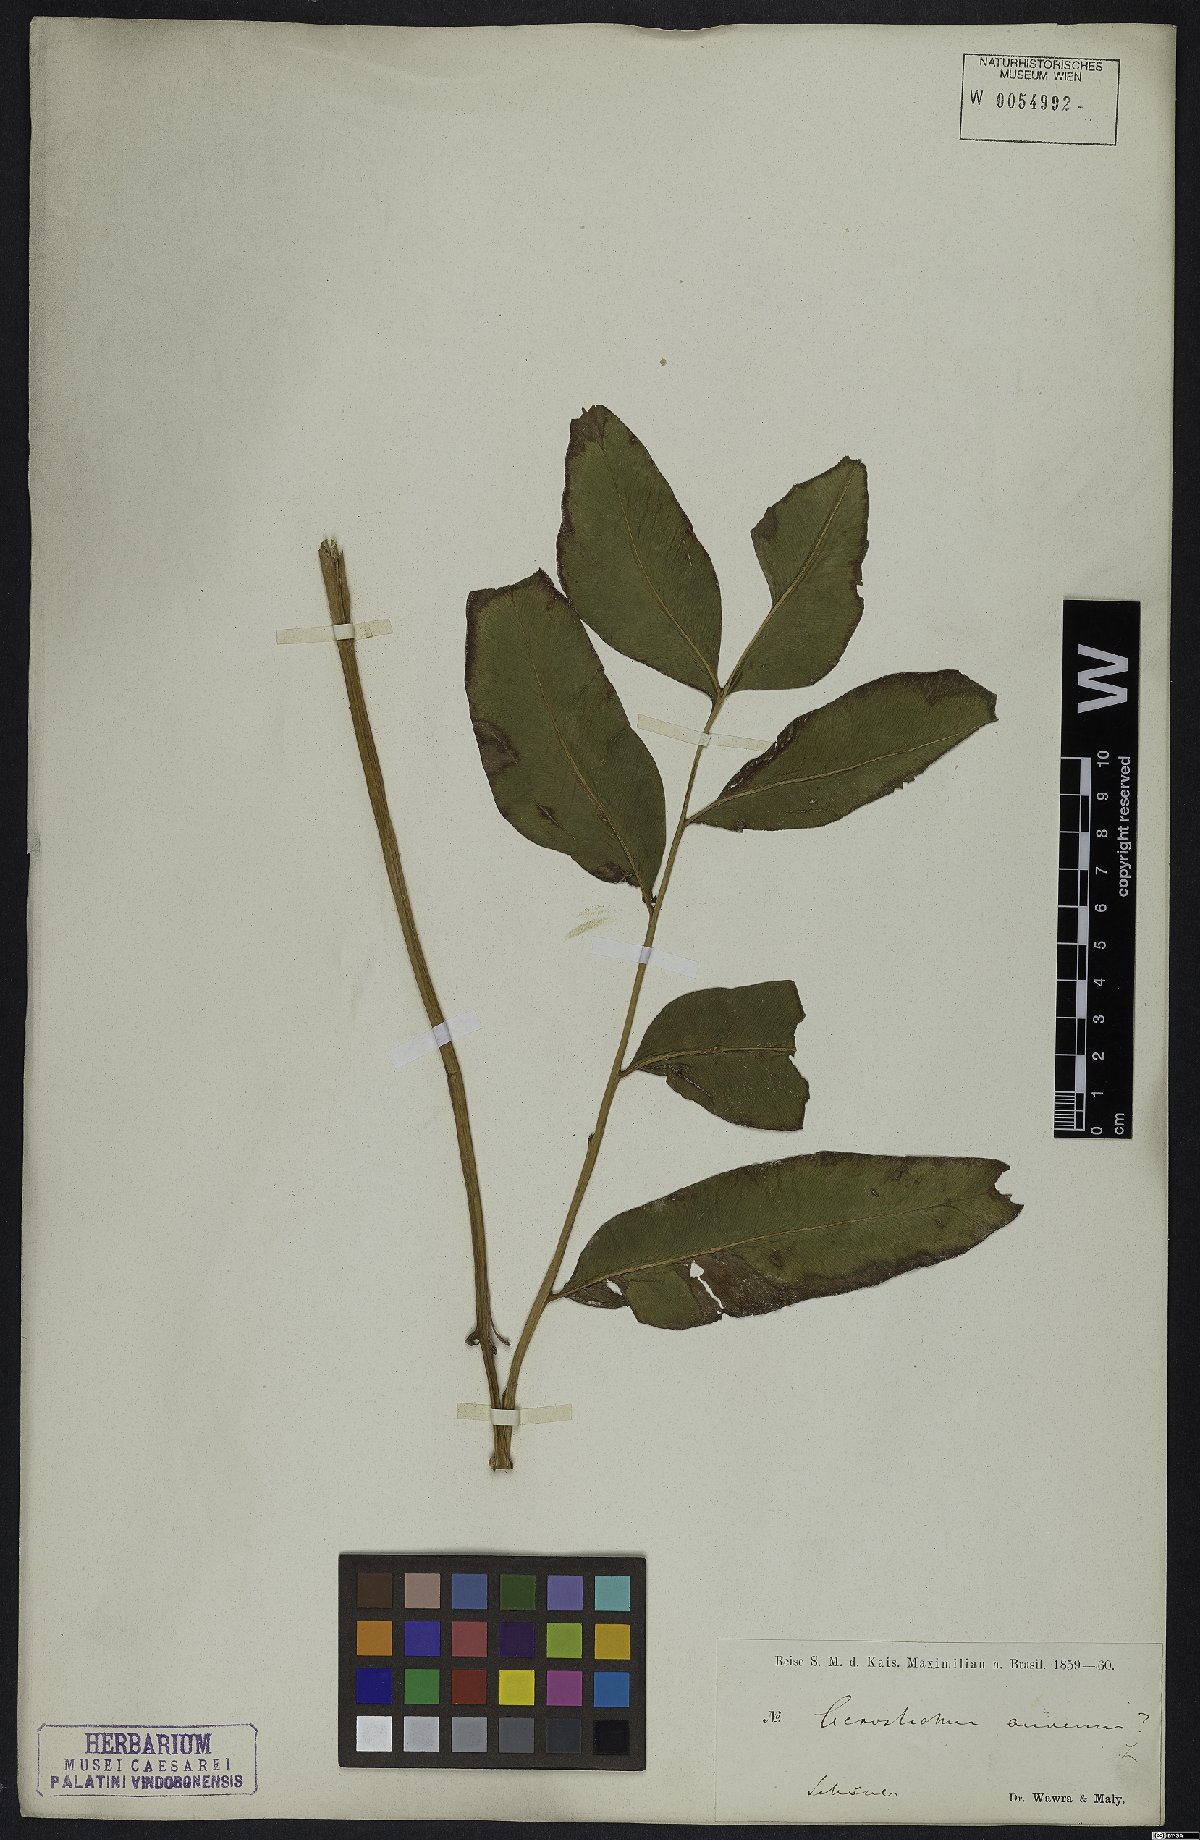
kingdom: Plantae
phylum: Tracheophyta
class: Polypodiopsida
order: Polypodiales
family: Pteridaceae
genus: Acrostichum
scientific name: Acrostichum aureum
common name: Leather fern
